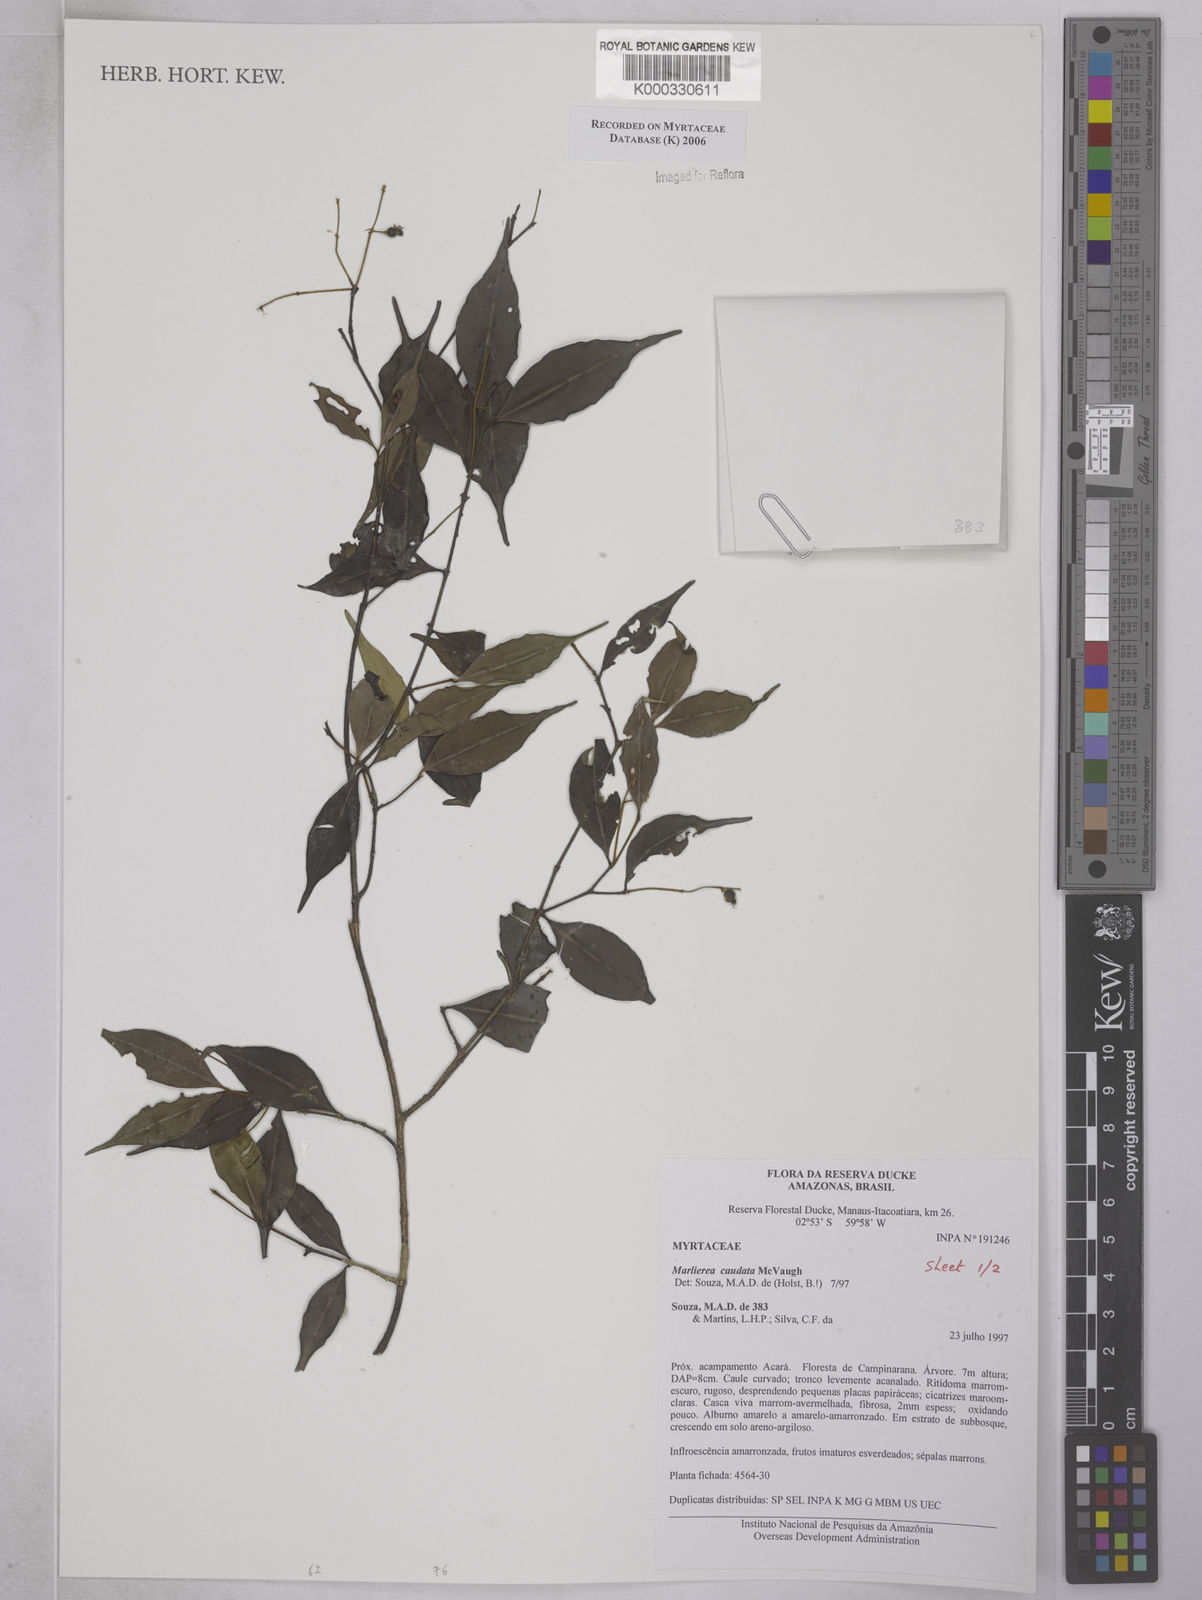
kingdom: Plantae
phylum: Tracheophyta
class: Magnoliopsida
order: Myrtales
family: Myrtaceae
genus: Myrcia
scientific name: Myrcia caudata
